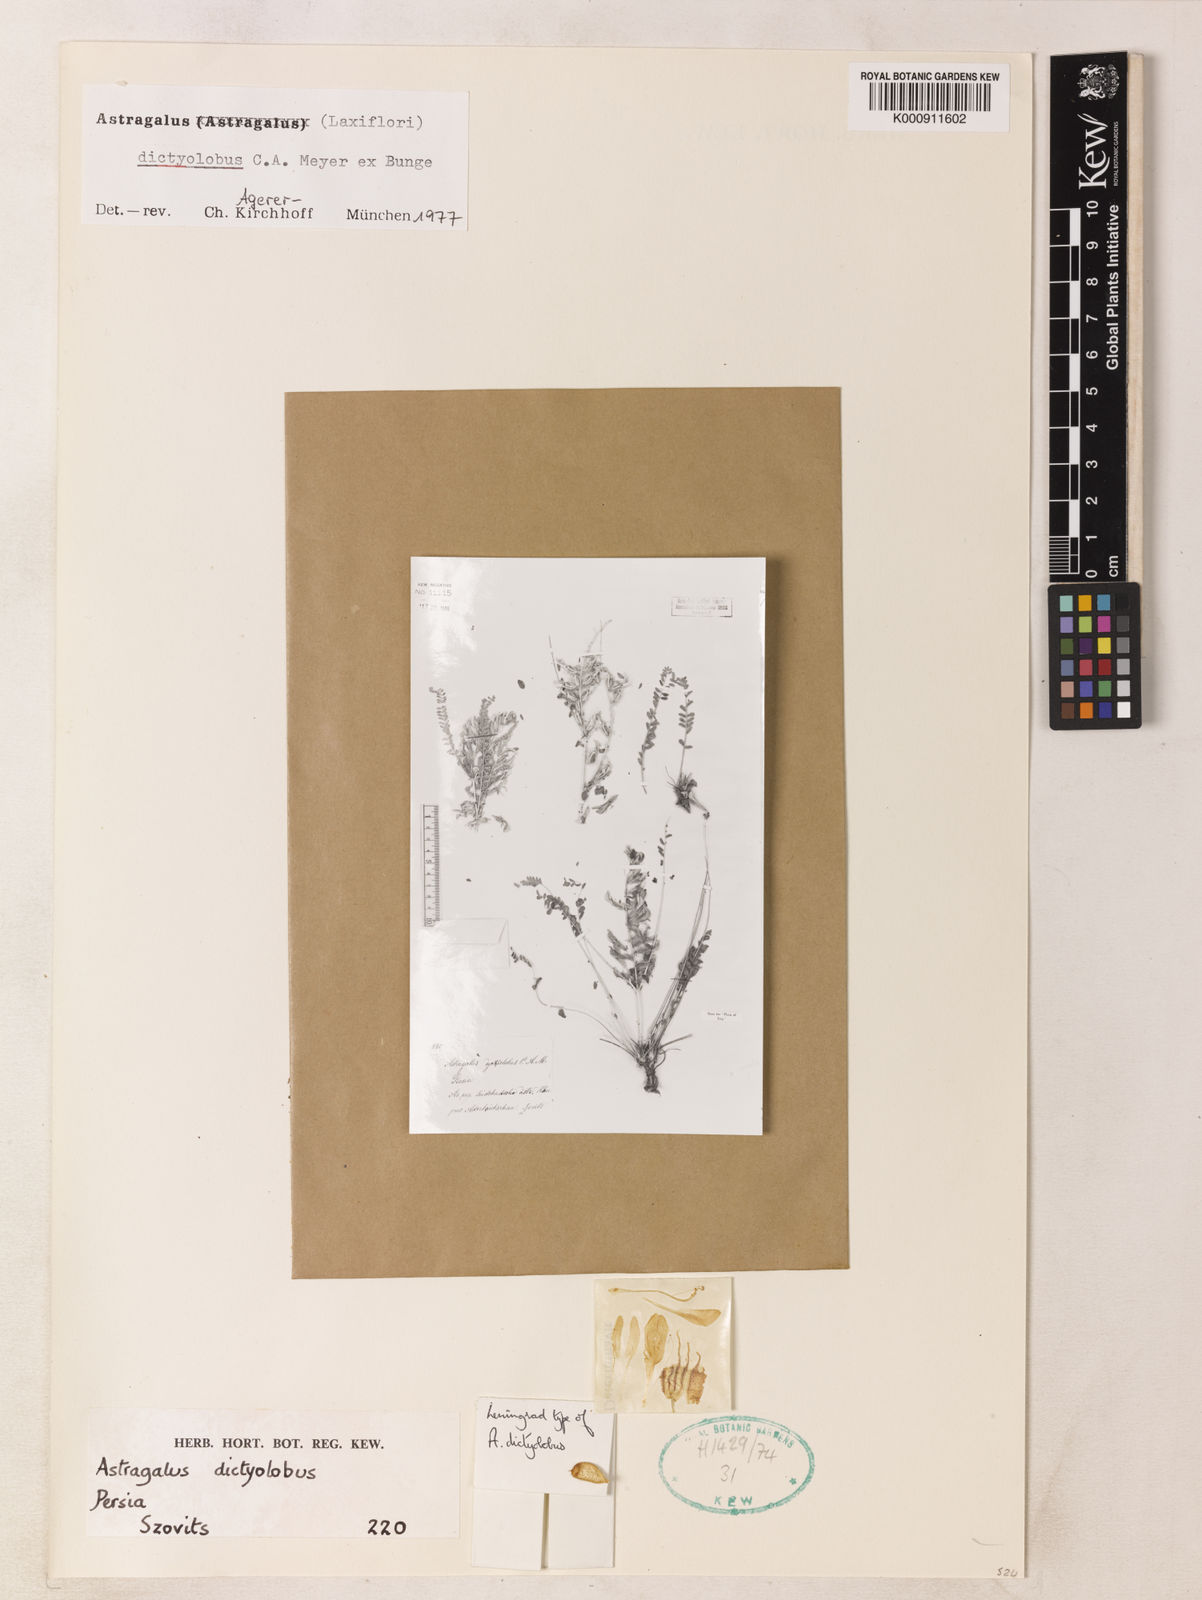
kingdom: Plantae
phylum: Tracheophyta
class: Magnoliopsida
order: Fabales
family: Fabaceae
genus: Astragalus
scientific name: Astragalus dictyolobus
